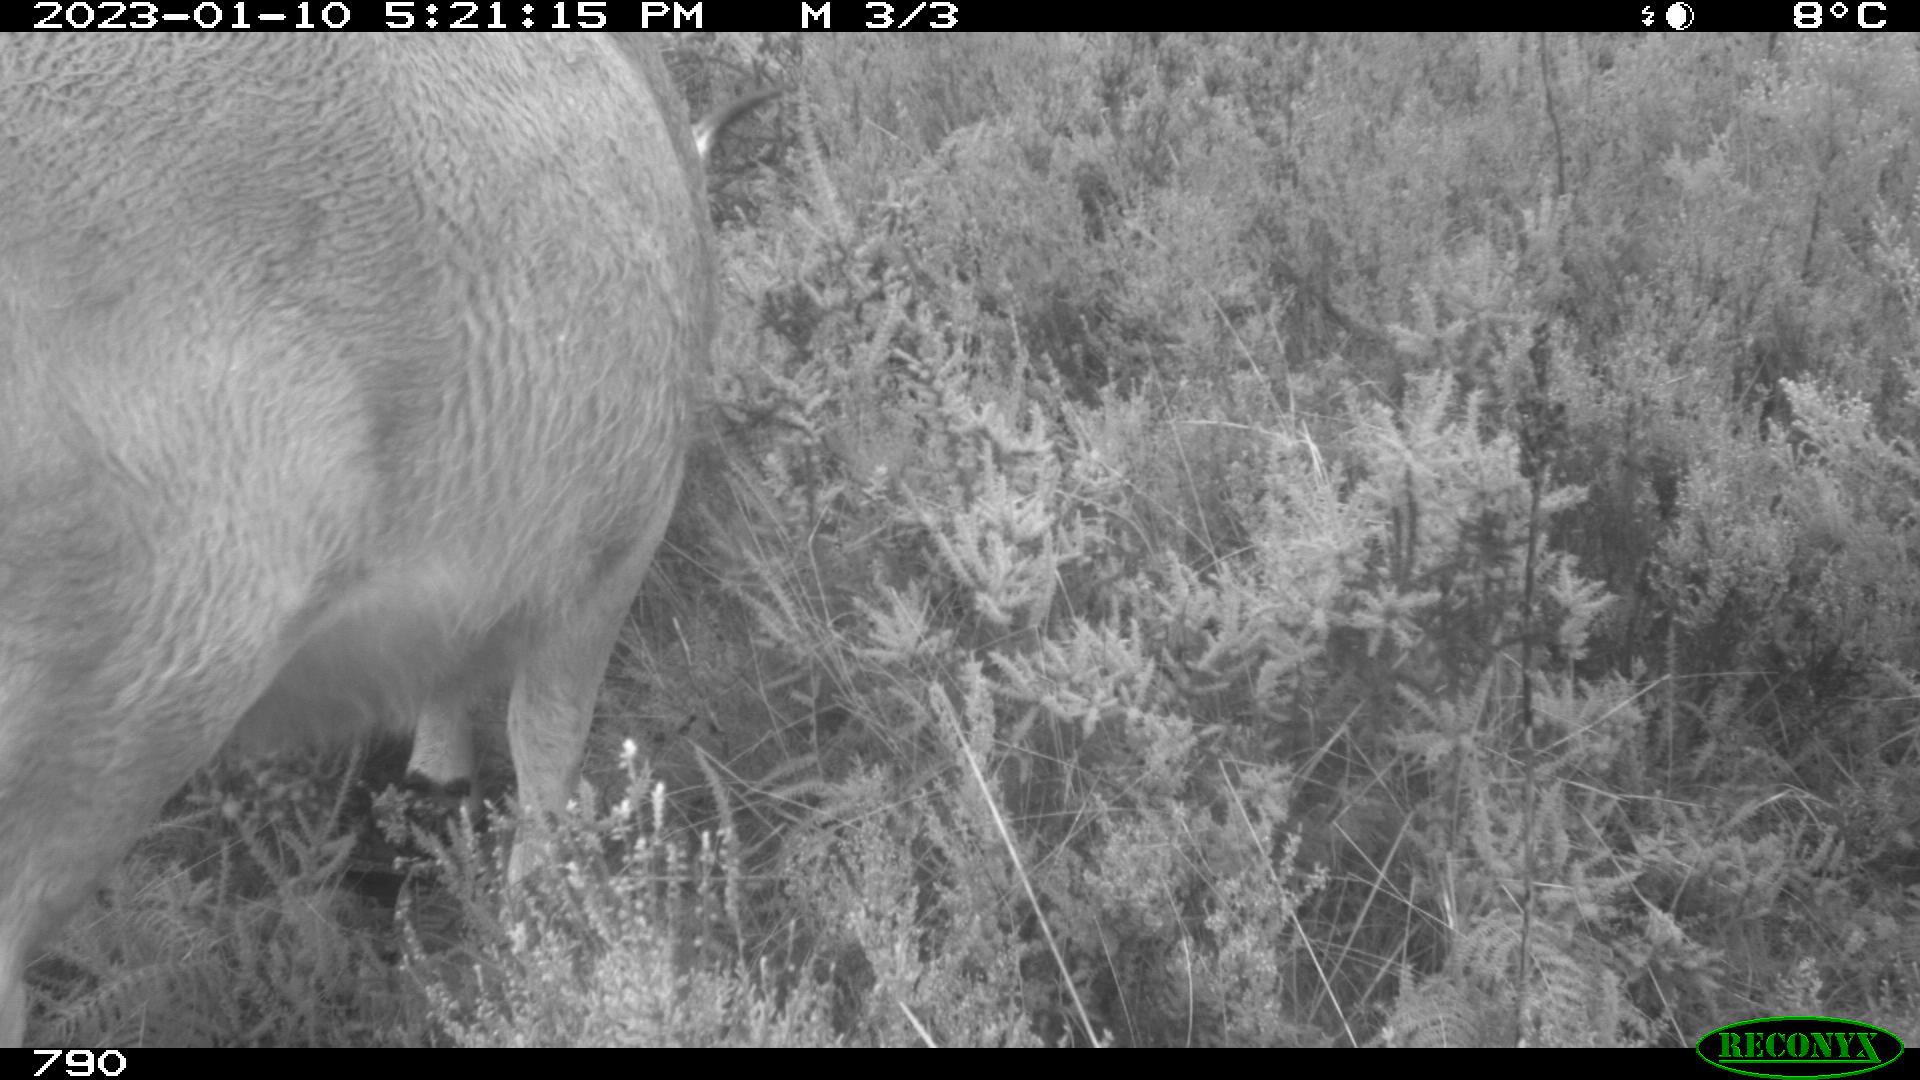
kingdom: Animalia
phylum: Chordata
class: Mammalia
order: Artiodactyla
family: Bovidae
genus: Bos
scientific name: Bos taurus
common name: Domesticated cattle
